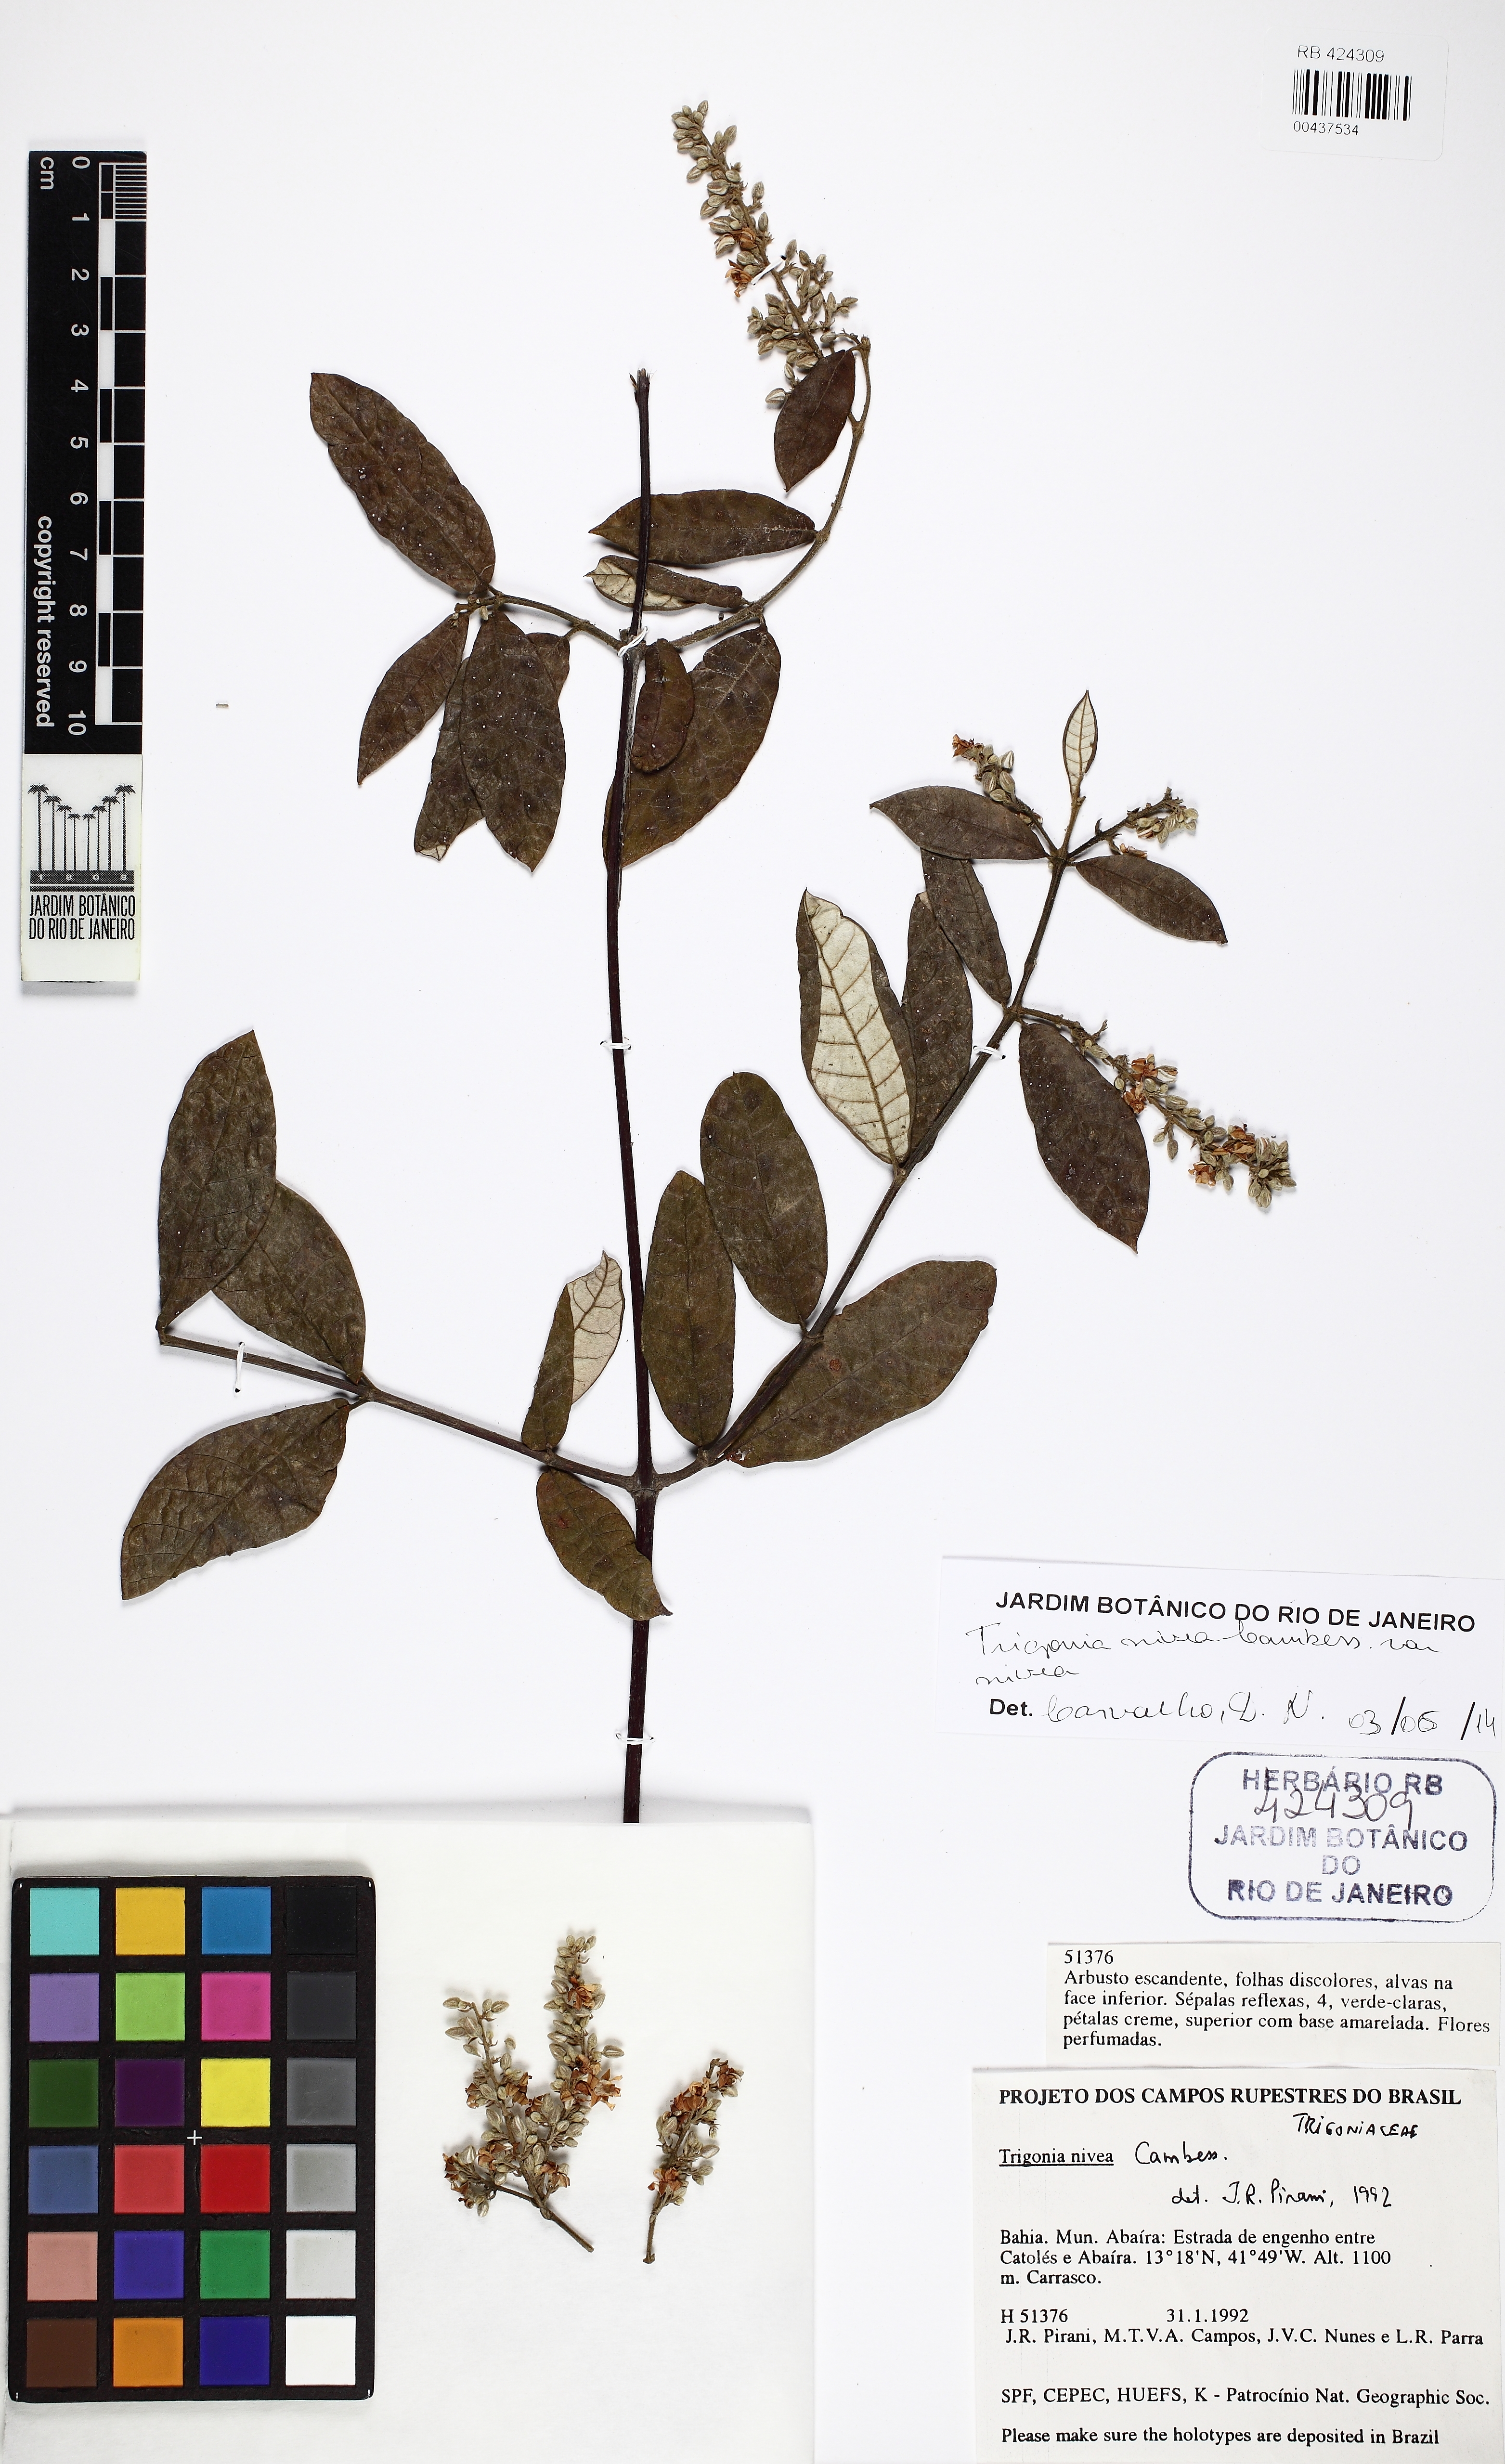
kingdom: Plantae
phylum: Tracheophyta
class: Magnoliopsida
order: Malpighiales
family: Trigoniaceae
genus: Trigonia
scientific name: Trigonia nivea
